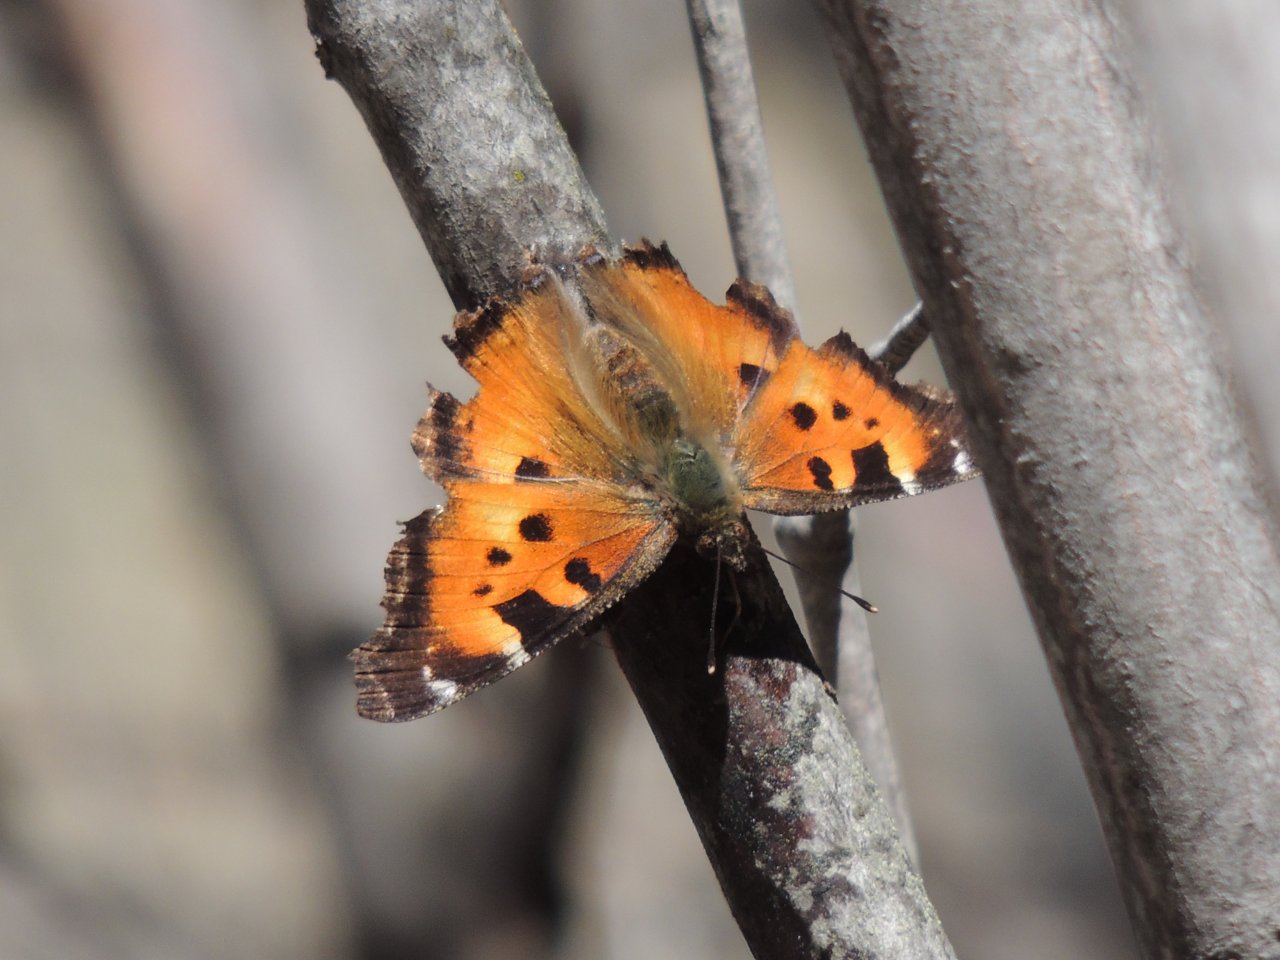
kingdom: Animalia
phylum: Arthropoda
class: Insecta
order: Lepidoptera
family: Nymphalidae
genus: Nymphalis
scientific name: Nymphalis californica
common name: California Tortoiseshell
